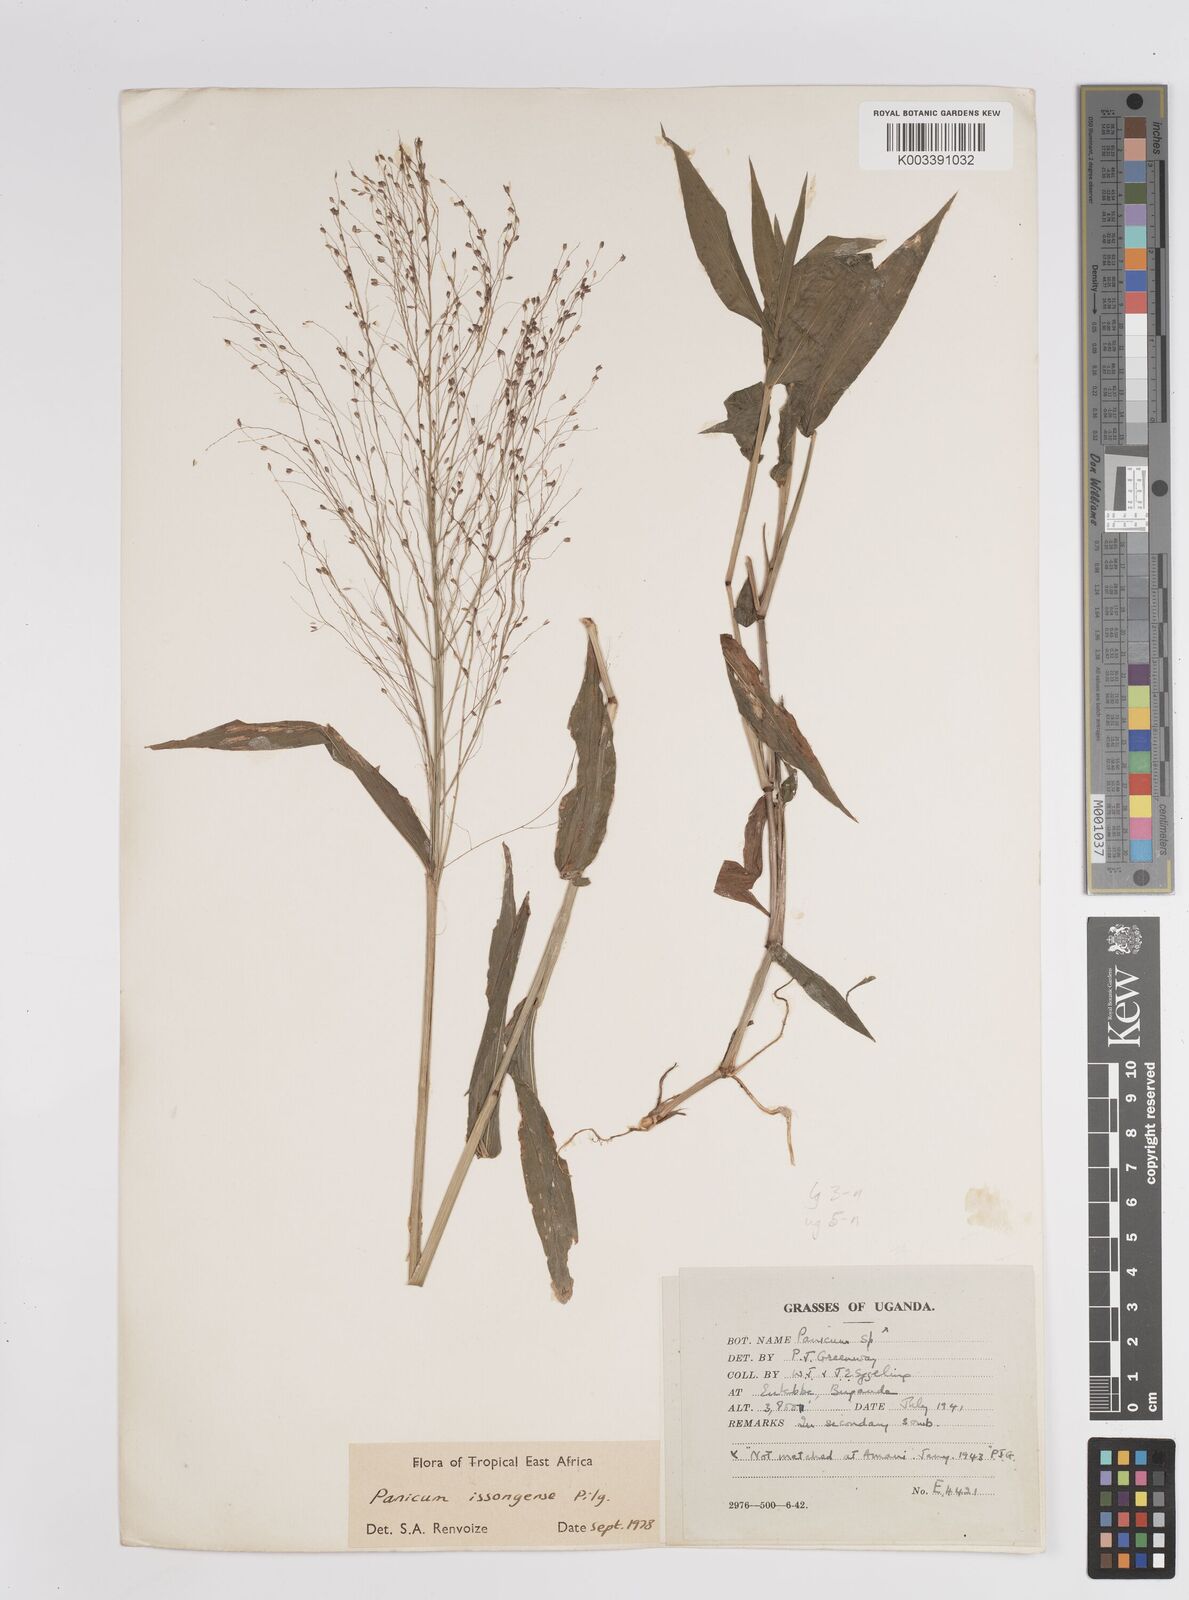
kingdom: Plantae
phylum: Tracheophyta
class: Liliopsida
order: Poales
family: Poaceae
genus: Panicum
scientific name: Panicum issongense
